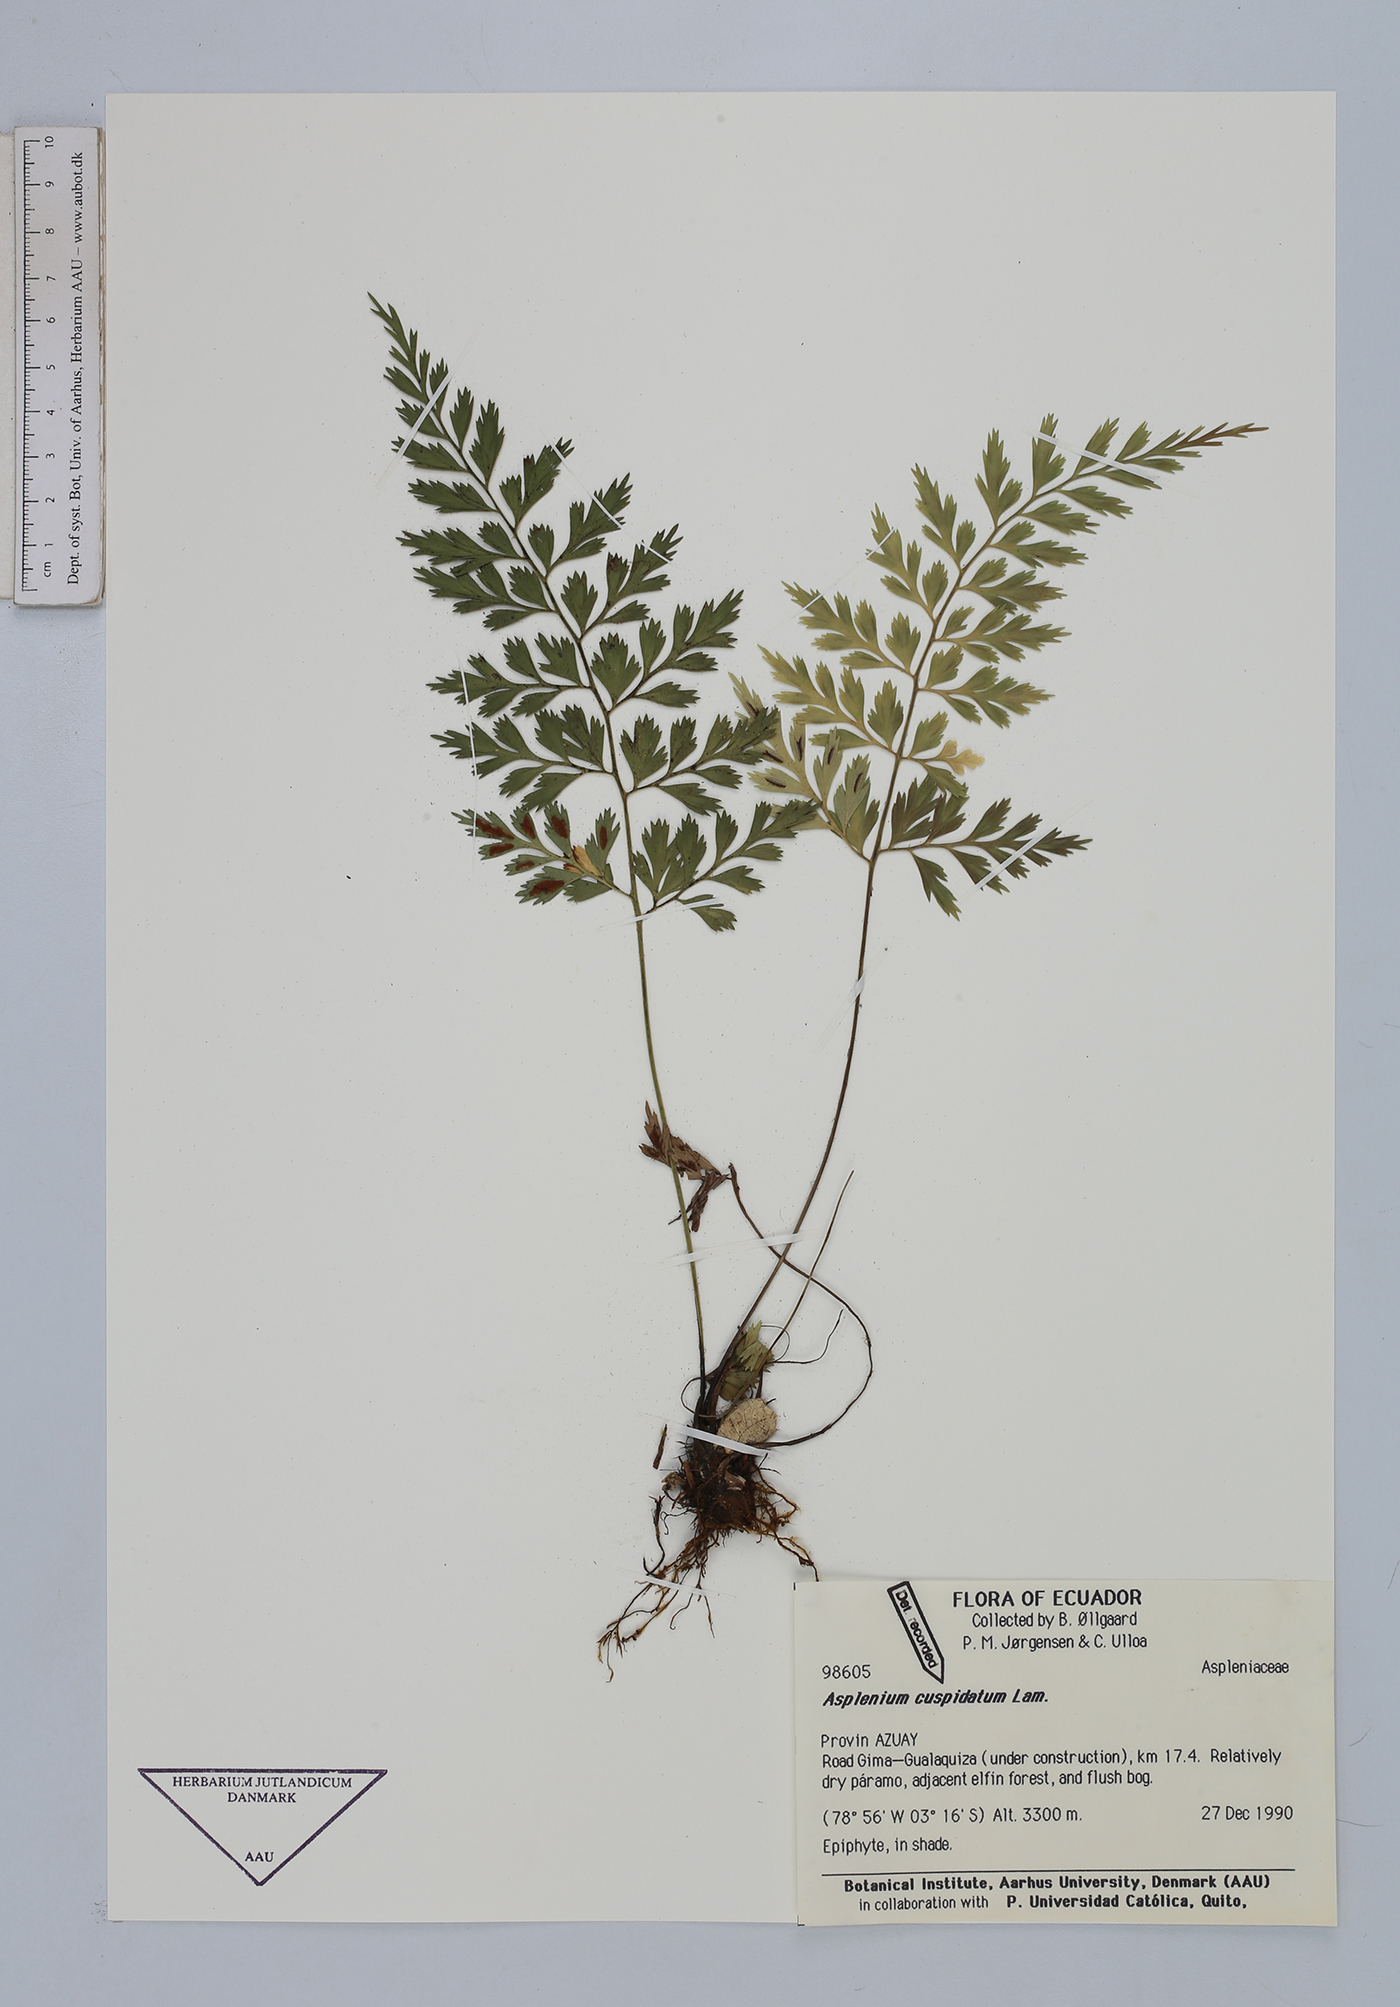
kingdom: Plantae
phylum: Tracheophyta
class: Polypodiopsida
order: Polypodiales
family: Aspleniaceae
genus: Asplenium
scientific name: Asplenium cuspidatum
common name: Eared spleenwort
